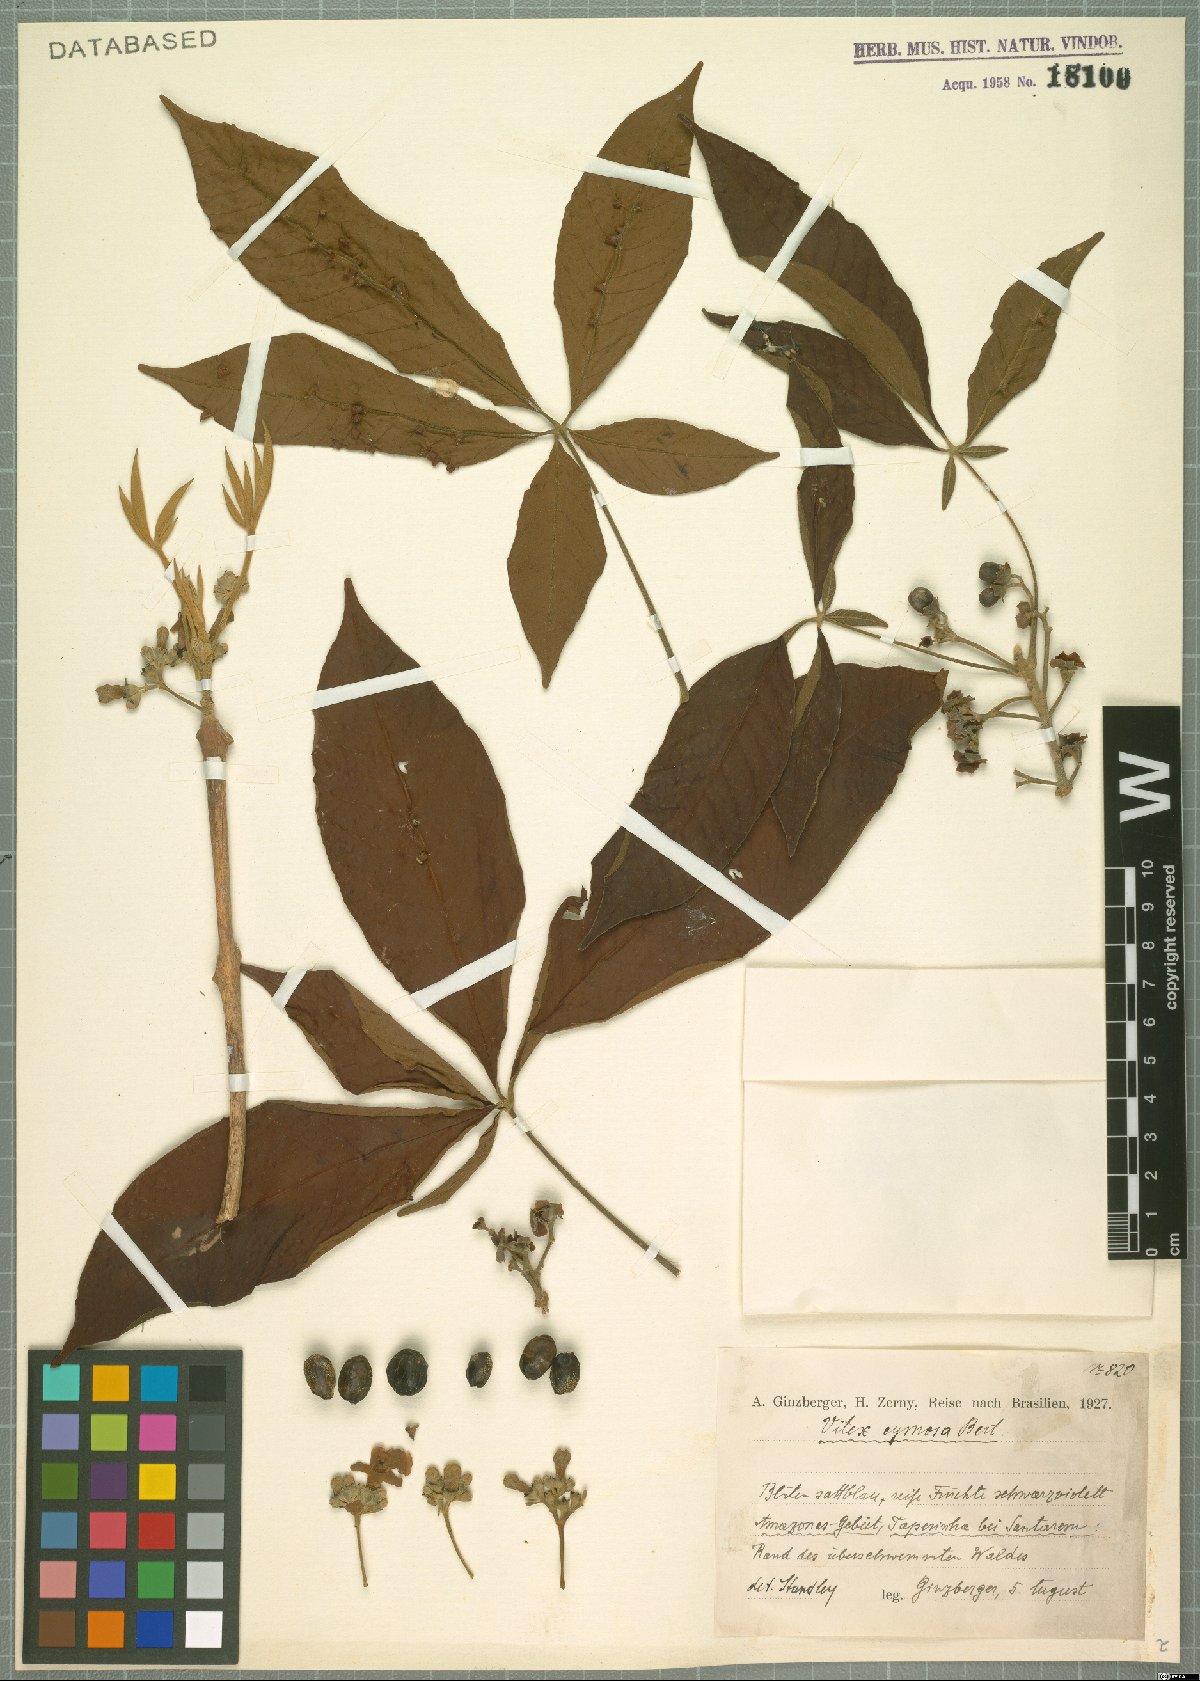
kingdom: Plantae
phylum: Tracheophyta
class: Magnoliopsida
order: Lamiales
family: Lamiaceae
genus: Vitex
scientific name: Vitex cymosa
